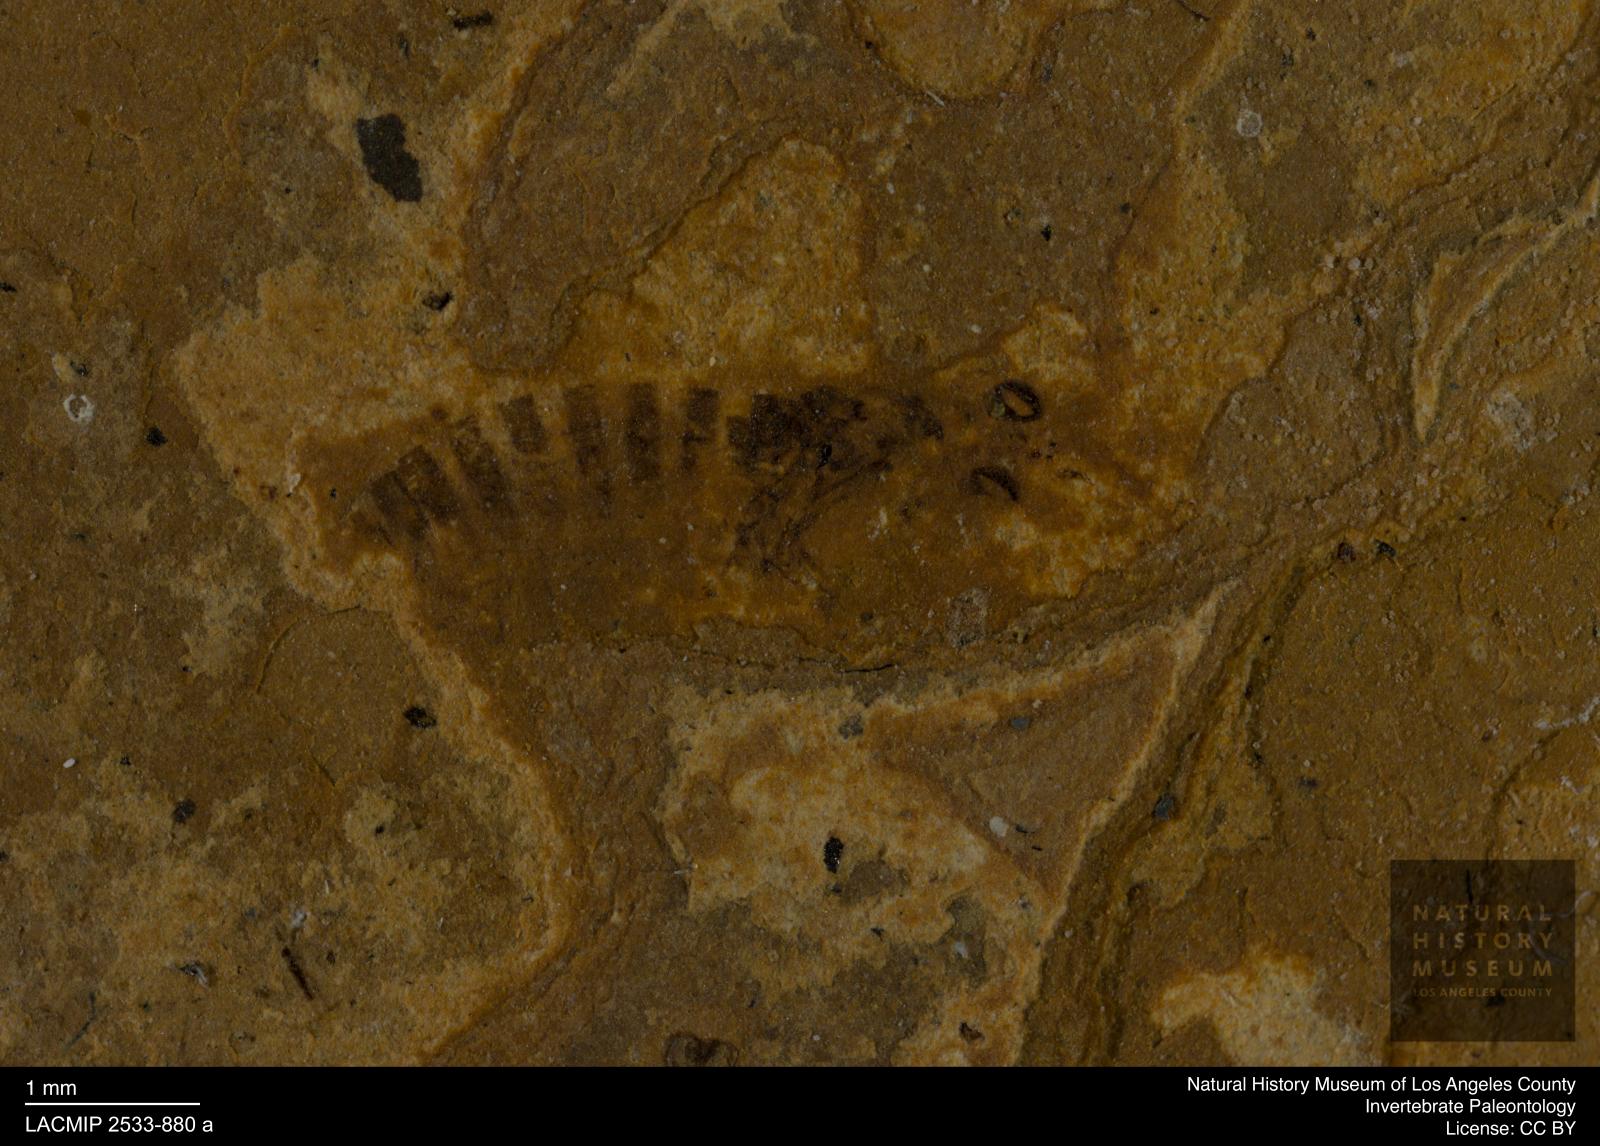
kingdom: Animalia
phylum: Arthropoda
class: Insecta
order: Hymenoptera
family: Xyelidae
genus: Xyela
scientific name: Xyela menelaus
